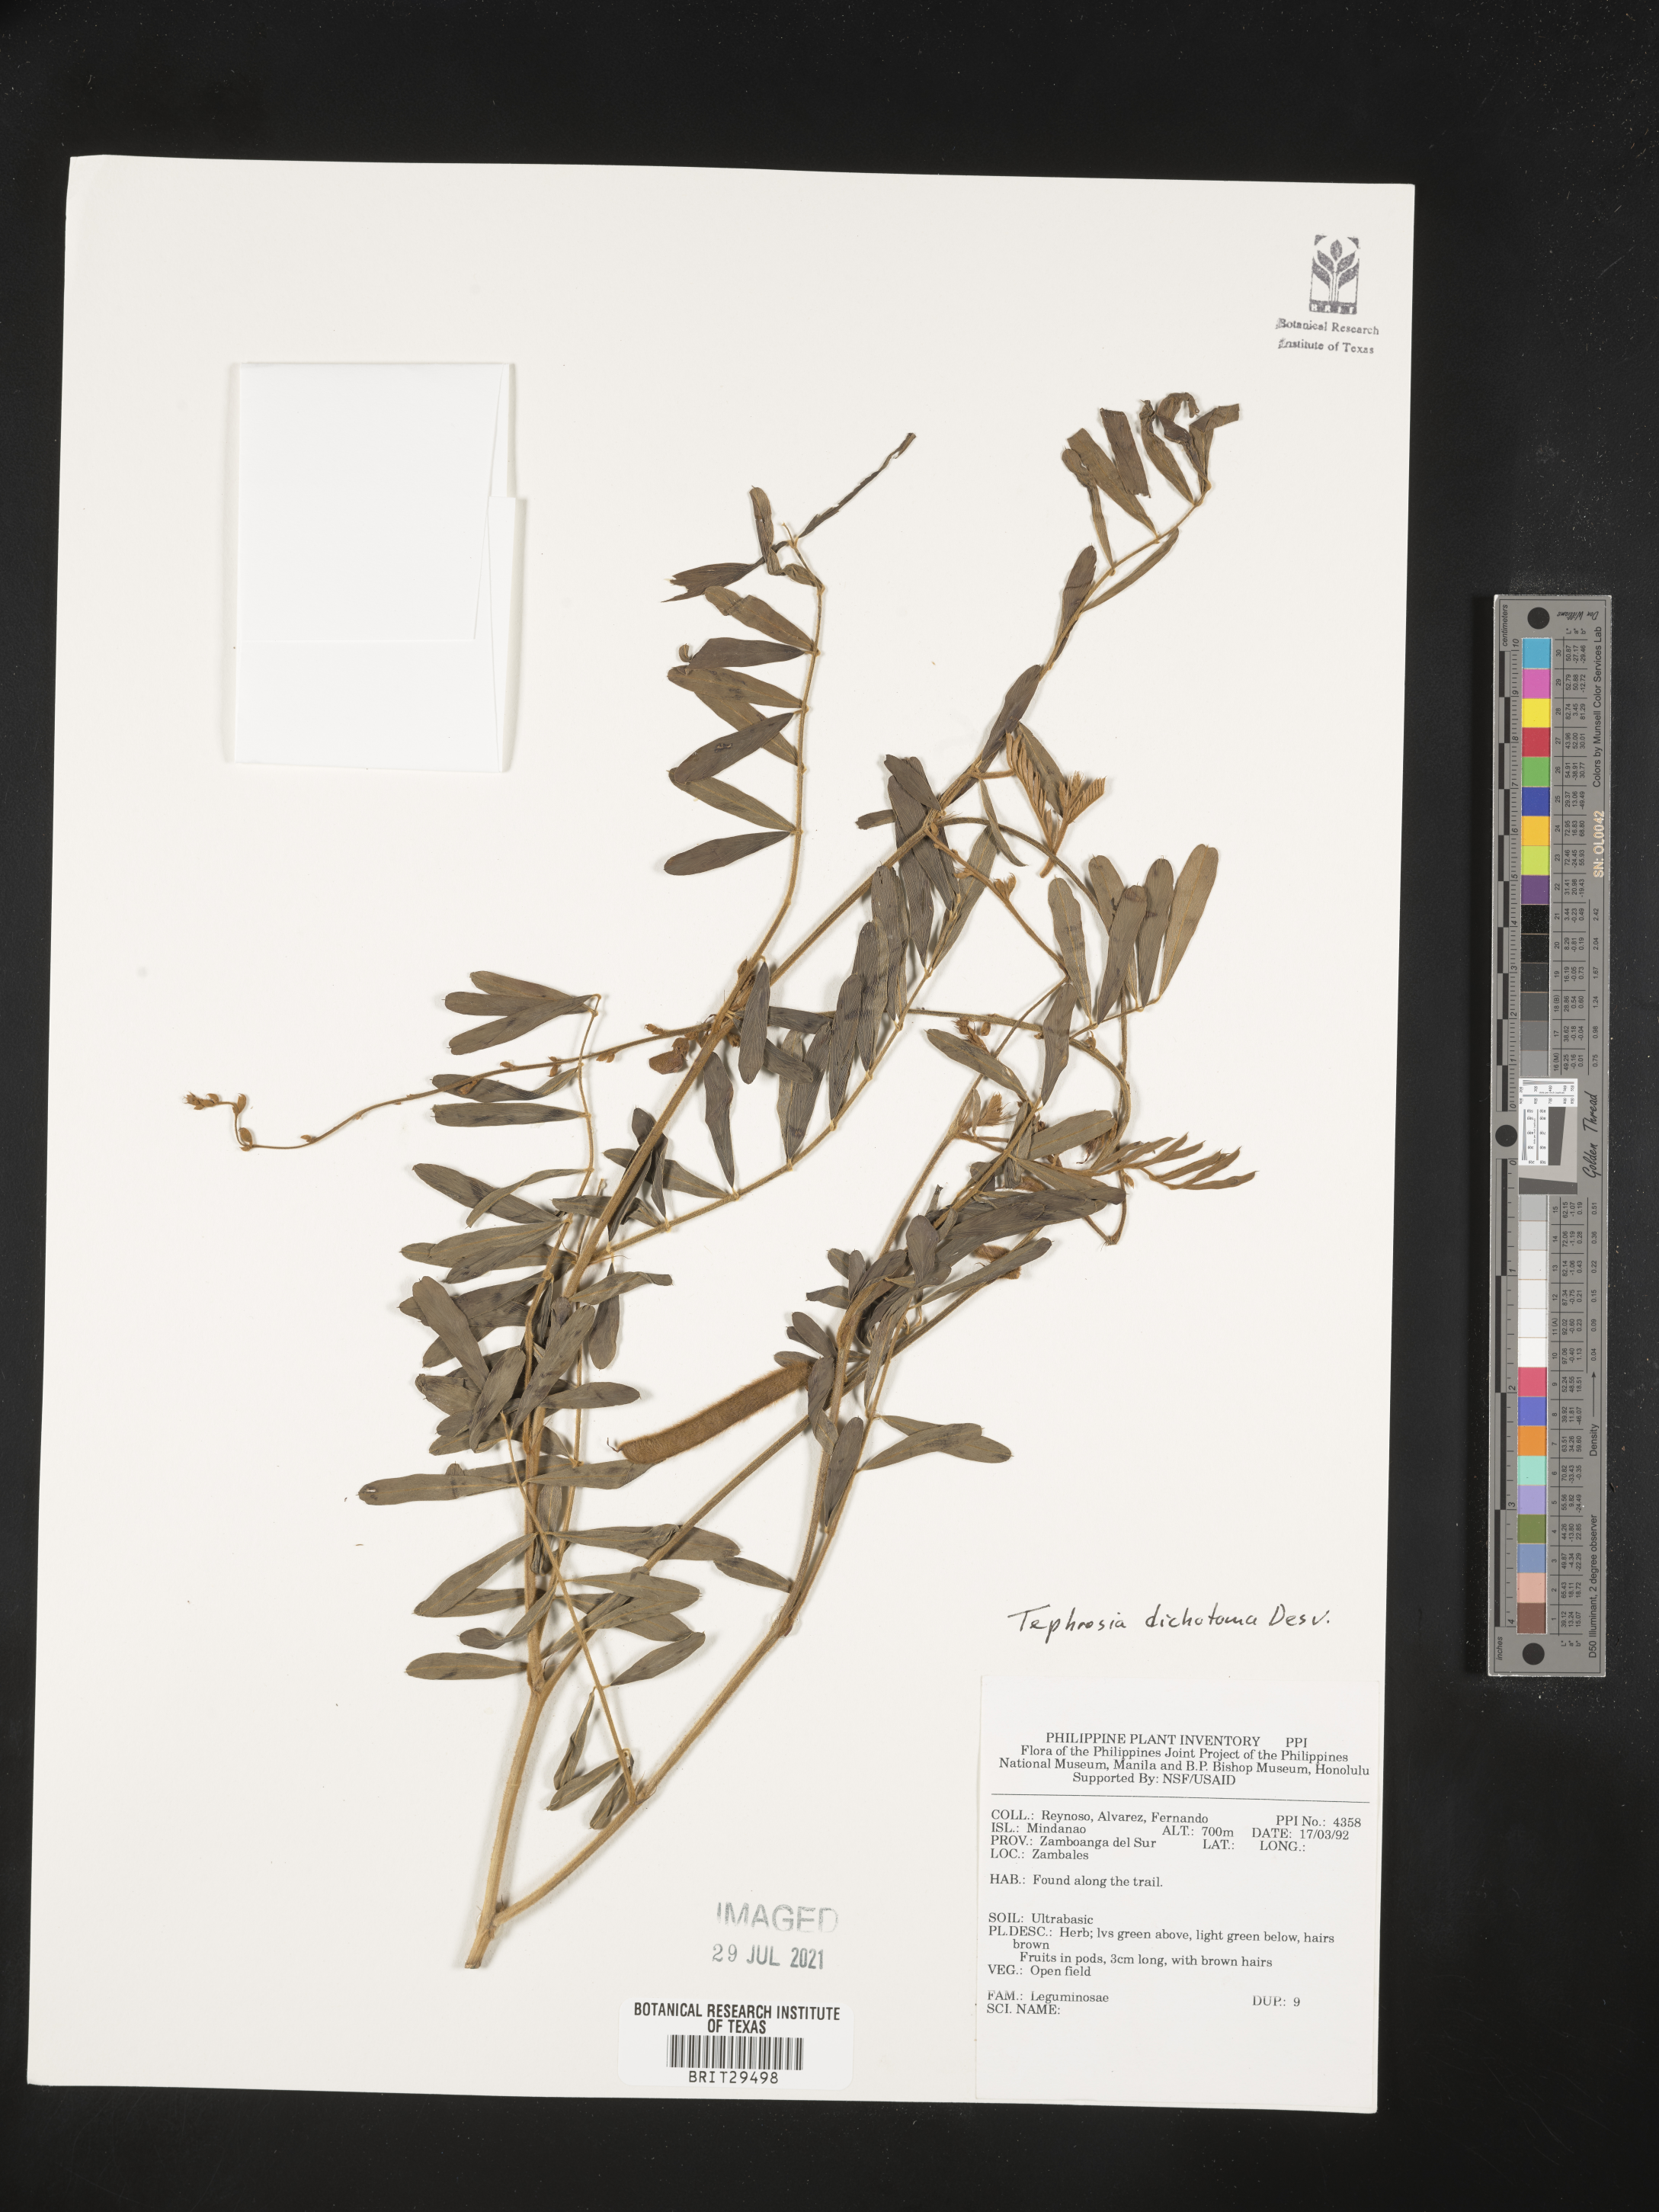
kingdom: Plantae
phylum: Tracheophyta
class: Magnoliopsida
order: Fabales
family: Fabaceae
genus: Tephrosia
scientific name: Tephrosia pumila
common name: Indigo sauvage
